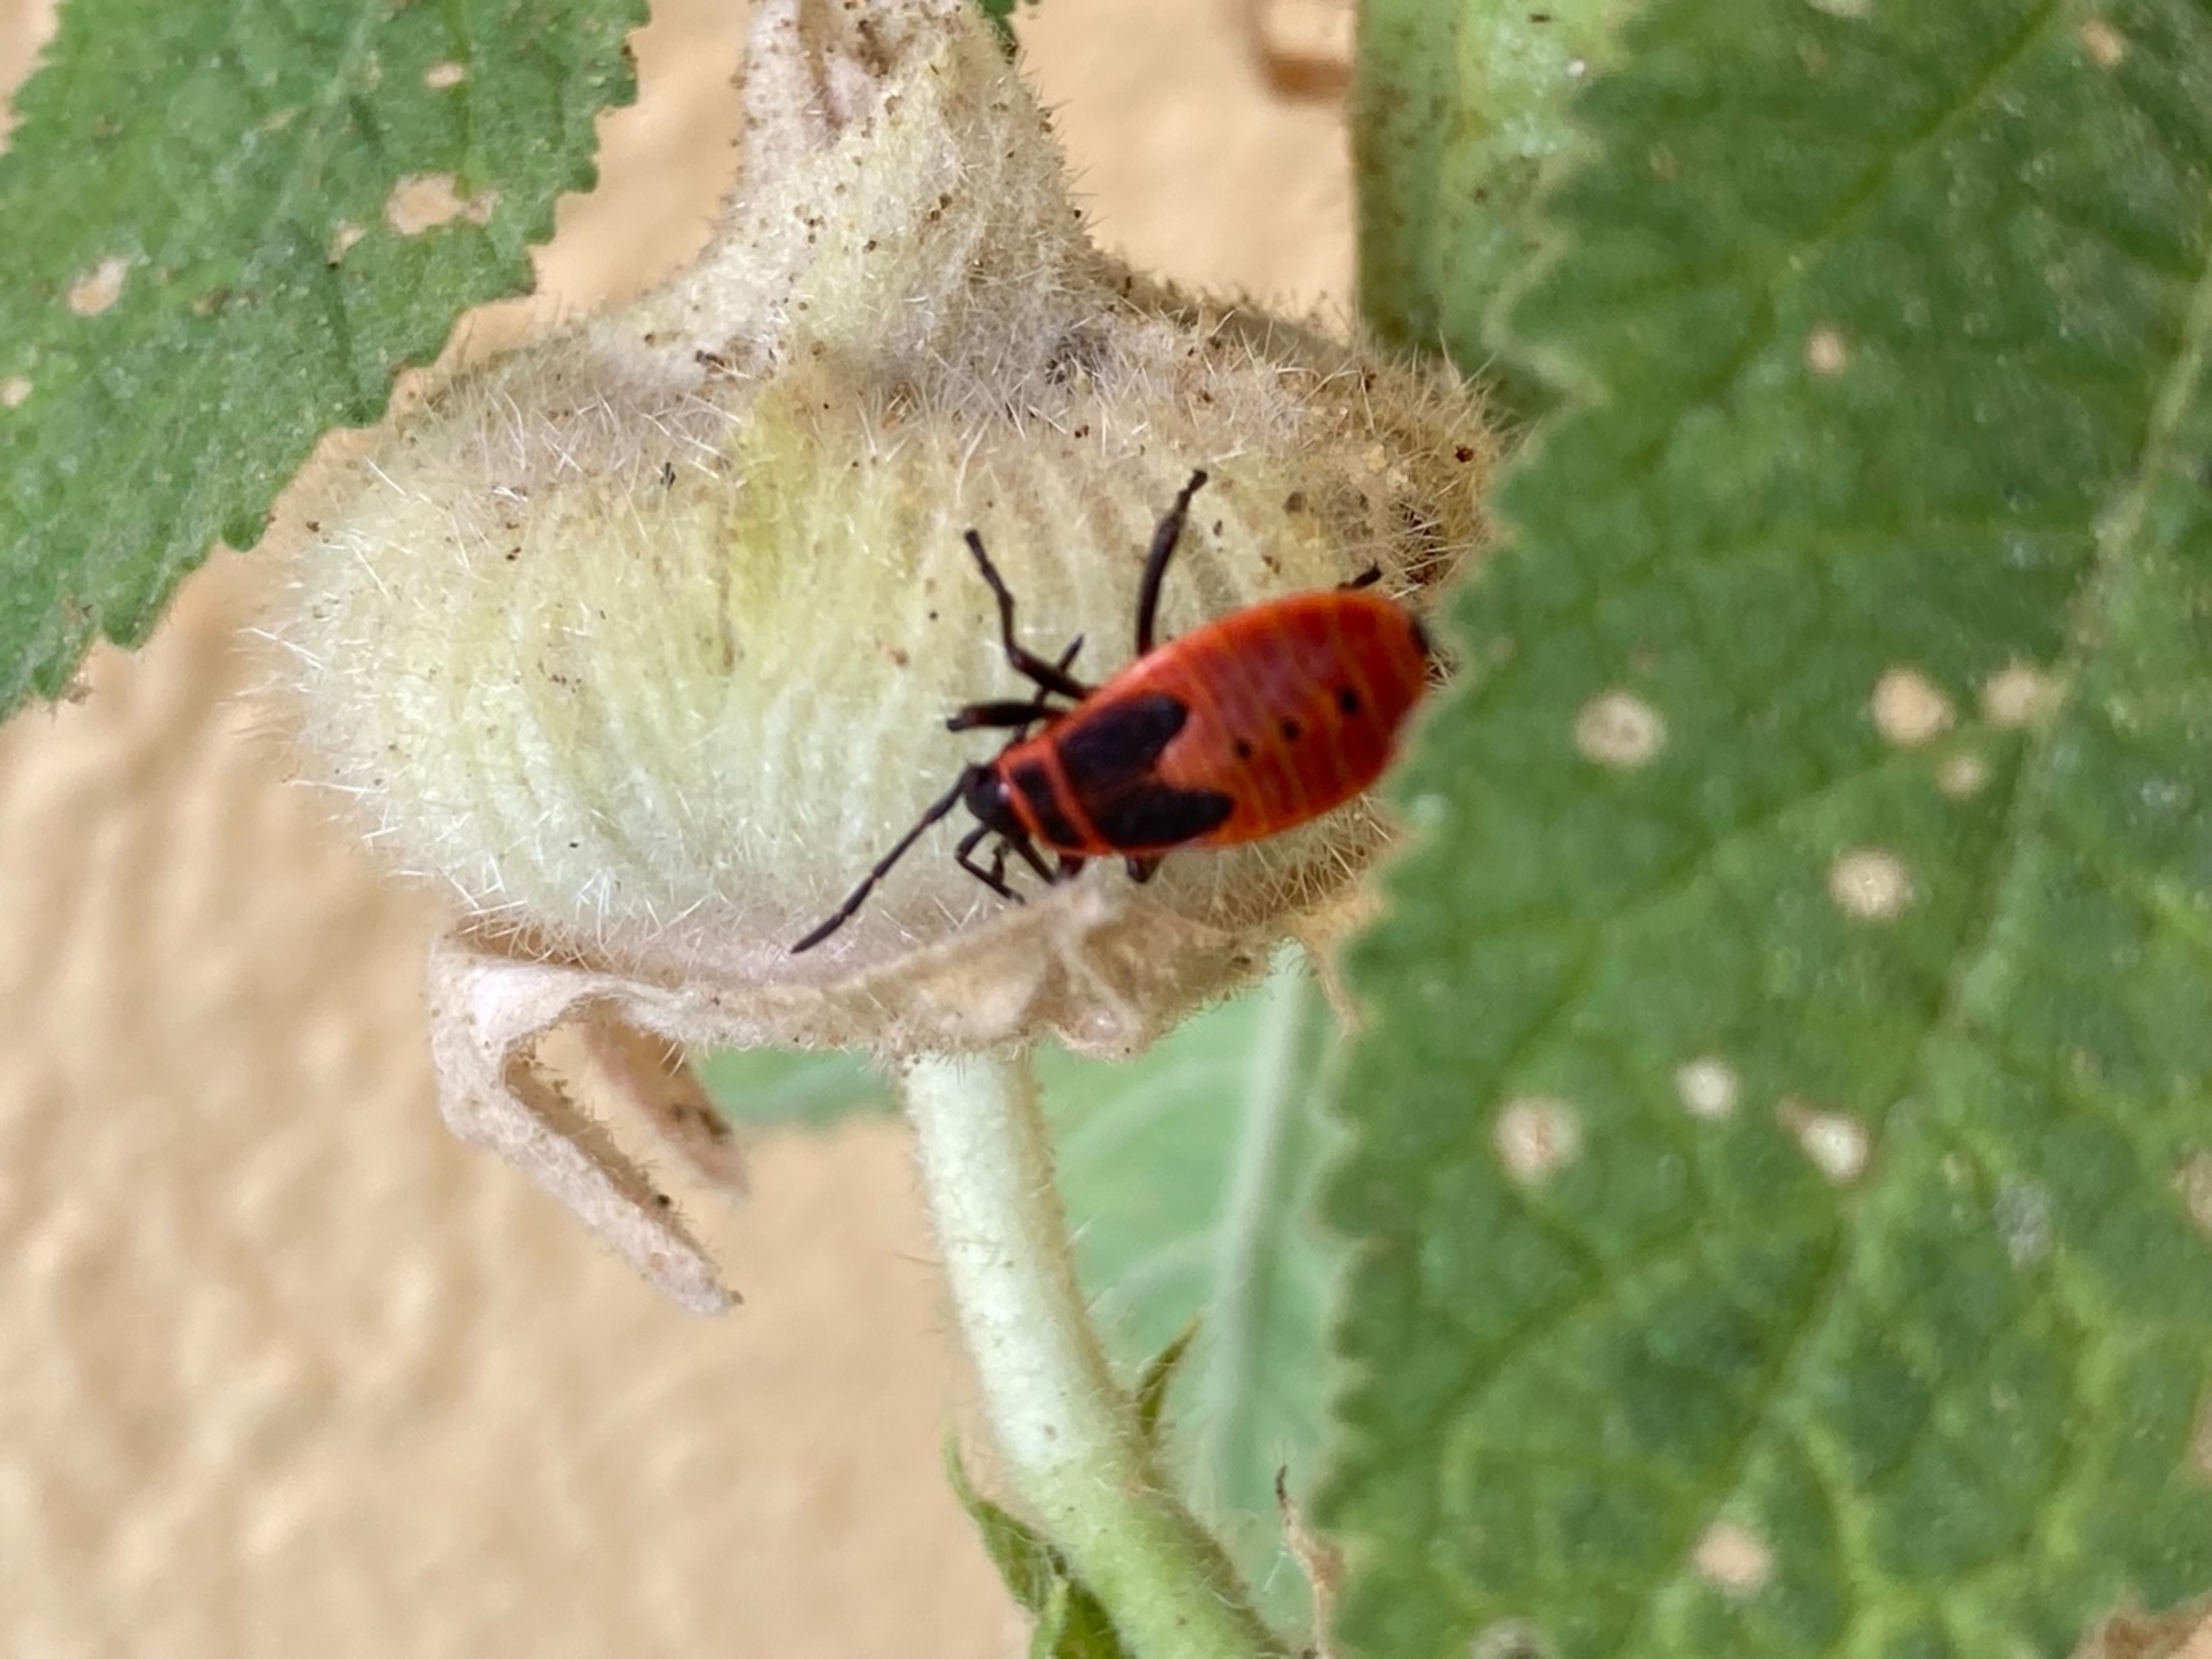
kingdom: Animalia
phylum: Arthropoda
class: Insecta
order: Hemiptera
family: Pyrrhocoridae
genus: Pyrrhocoris
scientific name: Pyrrhocoris apterus
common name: Ildtæge
